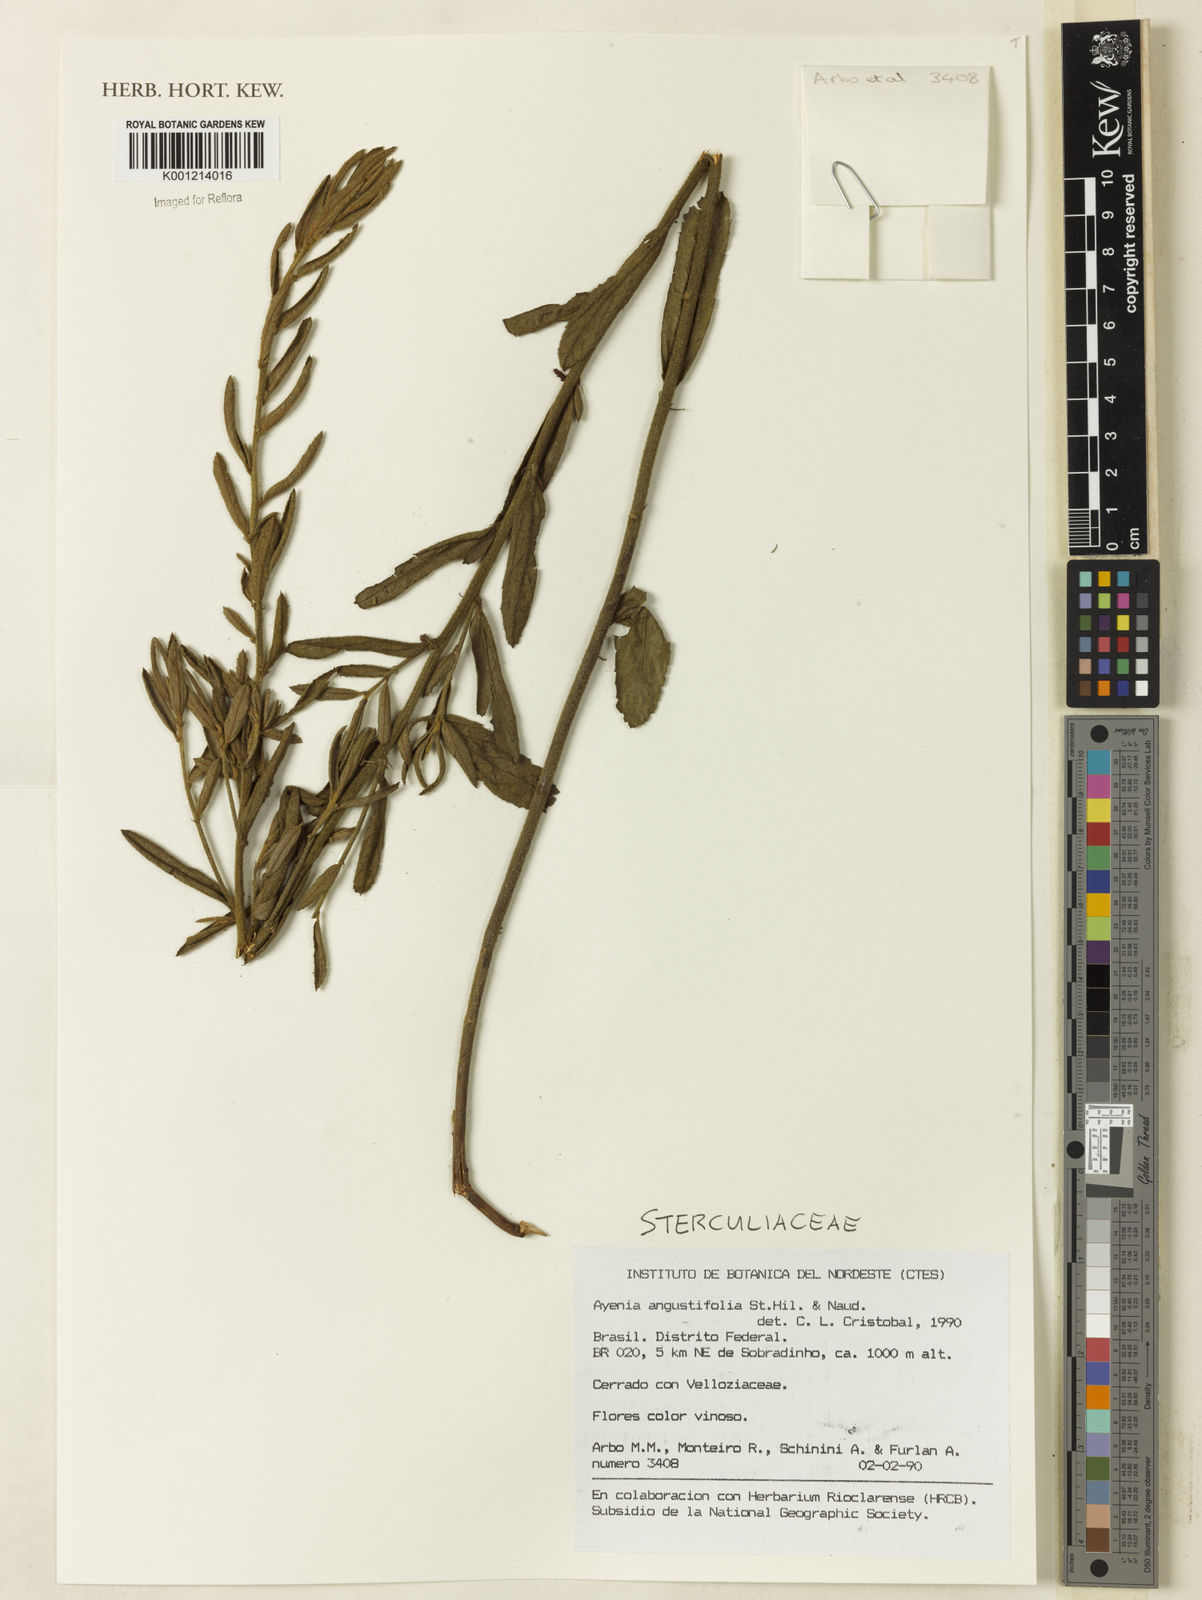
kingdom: Plantae
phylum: Tracheophyta
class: Magnoliopsida
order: Malvales
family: Malvaceae
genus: Ayenia
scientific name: Ayenia angustifolia
